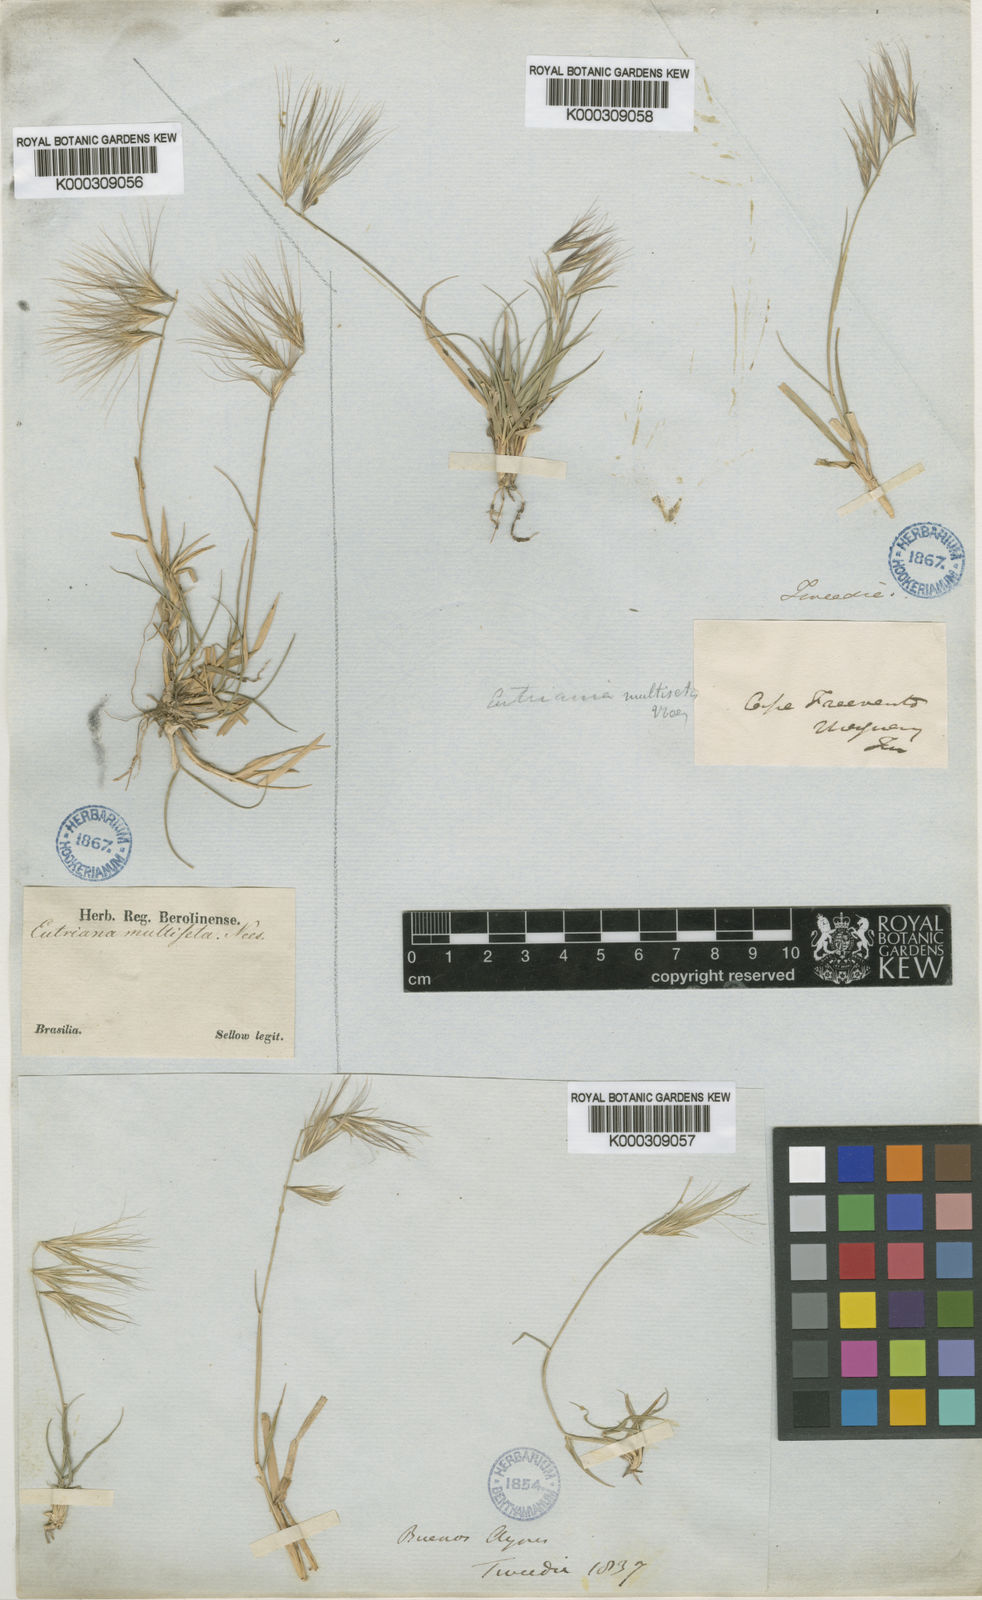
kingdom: Plantae
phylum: Tracheophyta
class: Liliopsida
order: Poales
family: Poaceae
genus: Bouteloua
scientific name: Bouteloua megapotamica
